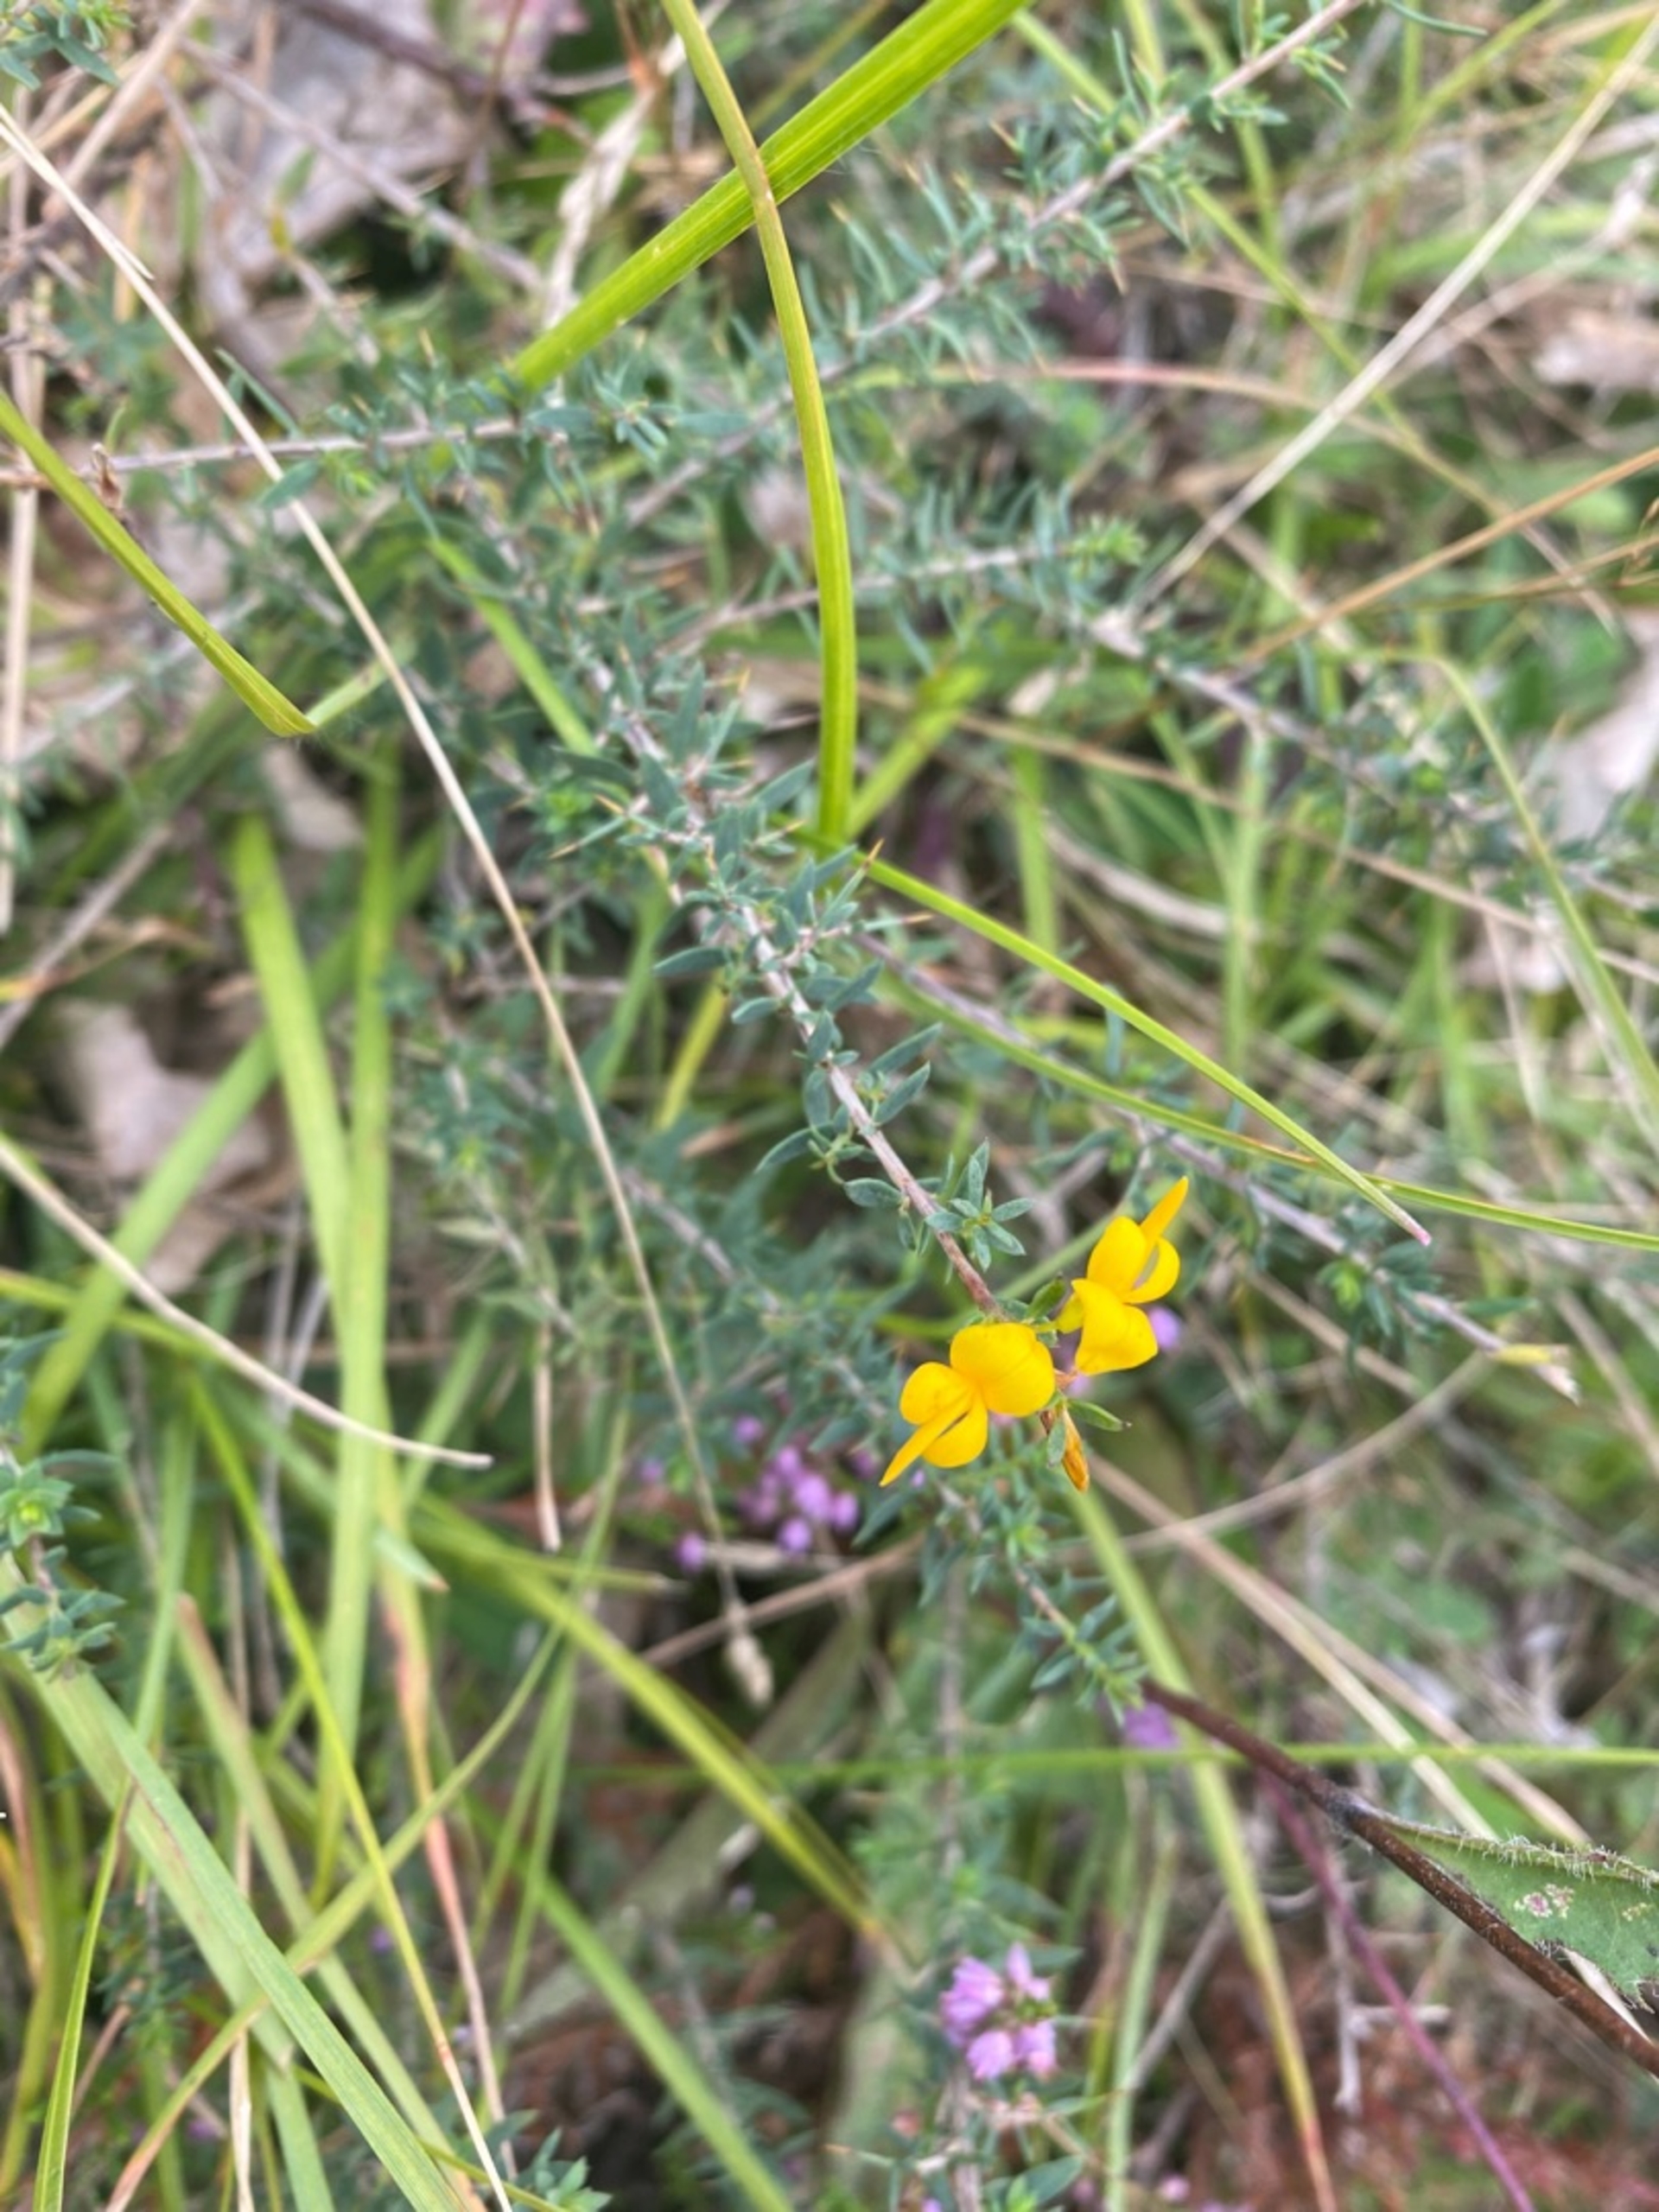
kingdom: Plantae
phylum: Tracheophyta
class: Magnoliopsida
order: Fabales
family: Fabaceae
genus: Genista
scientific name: Genista anglica
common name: Engelsk visse
